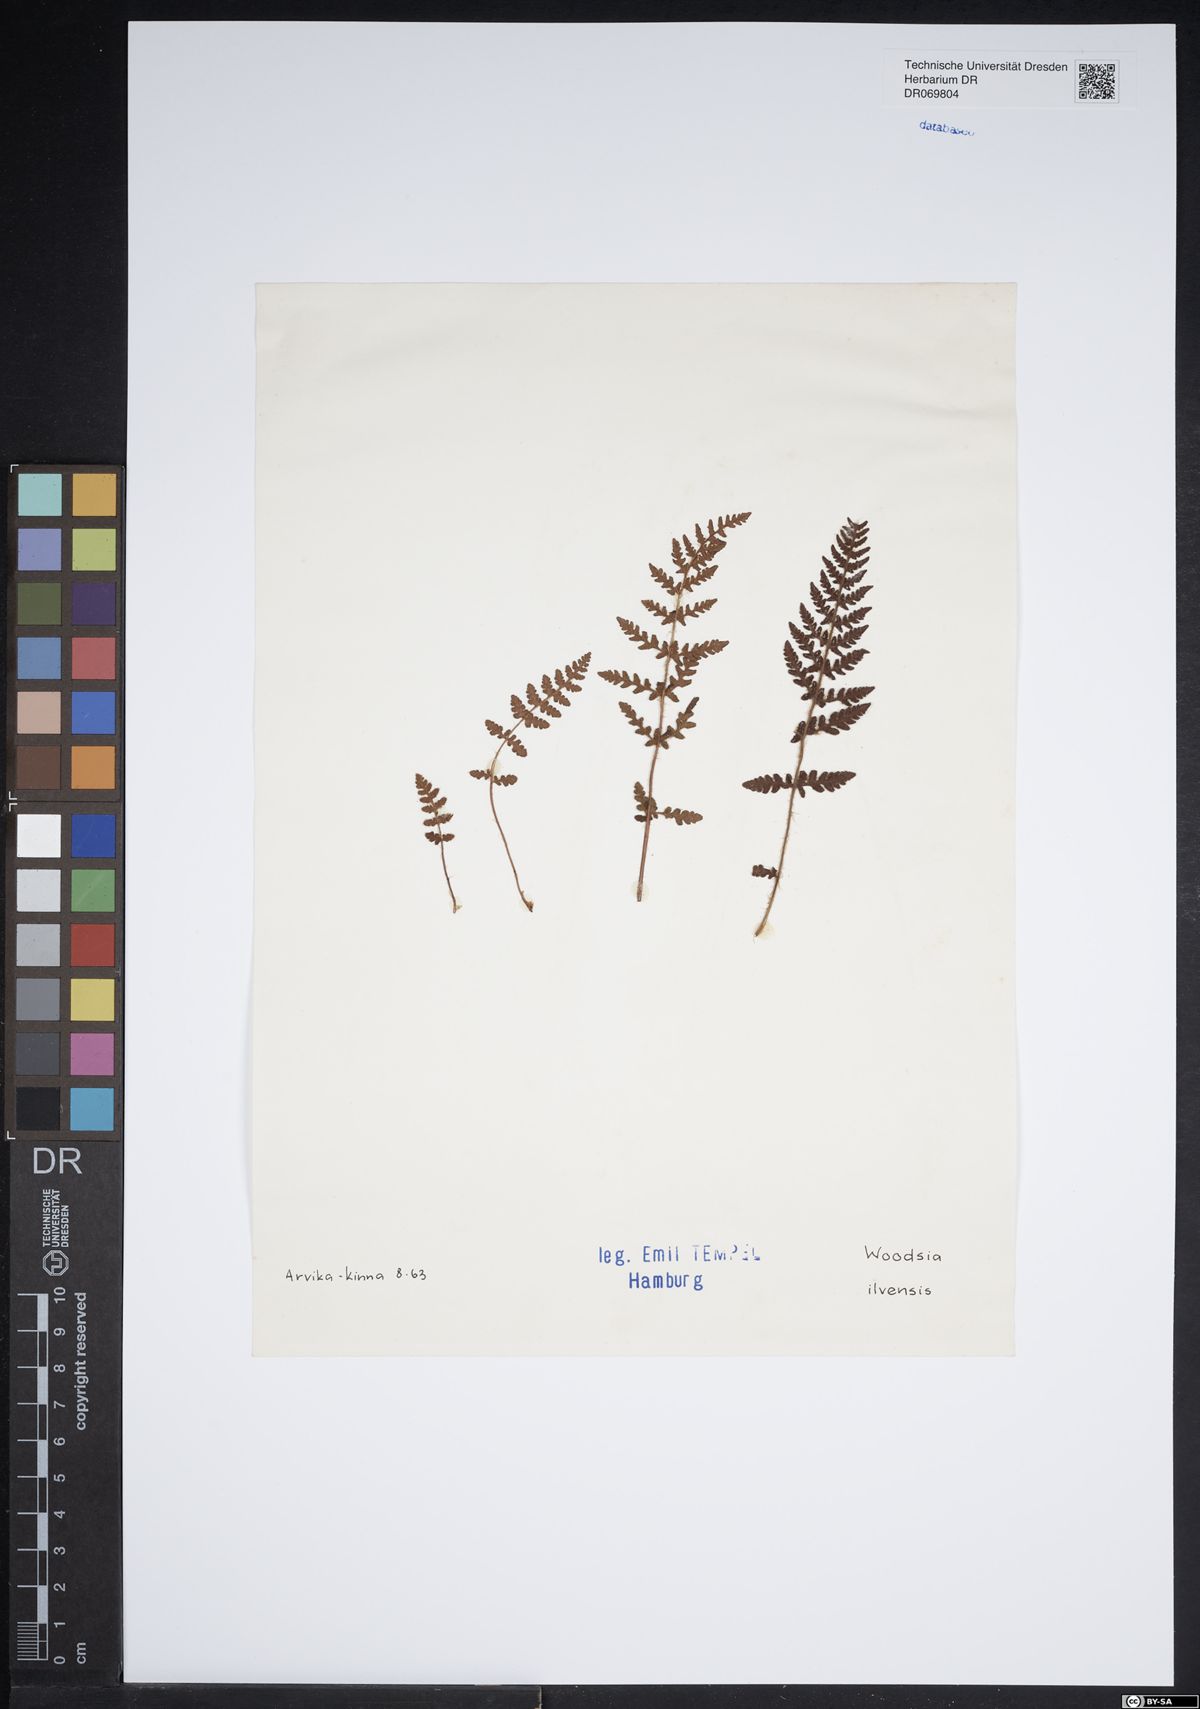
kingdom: Plantae
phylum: Tracheophyta
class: Polypodiopsida
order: Polypodiales
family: Woodsiaceae
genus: Woodsia
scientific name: Woodsia ilvensis
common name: Fragrant woodsia
